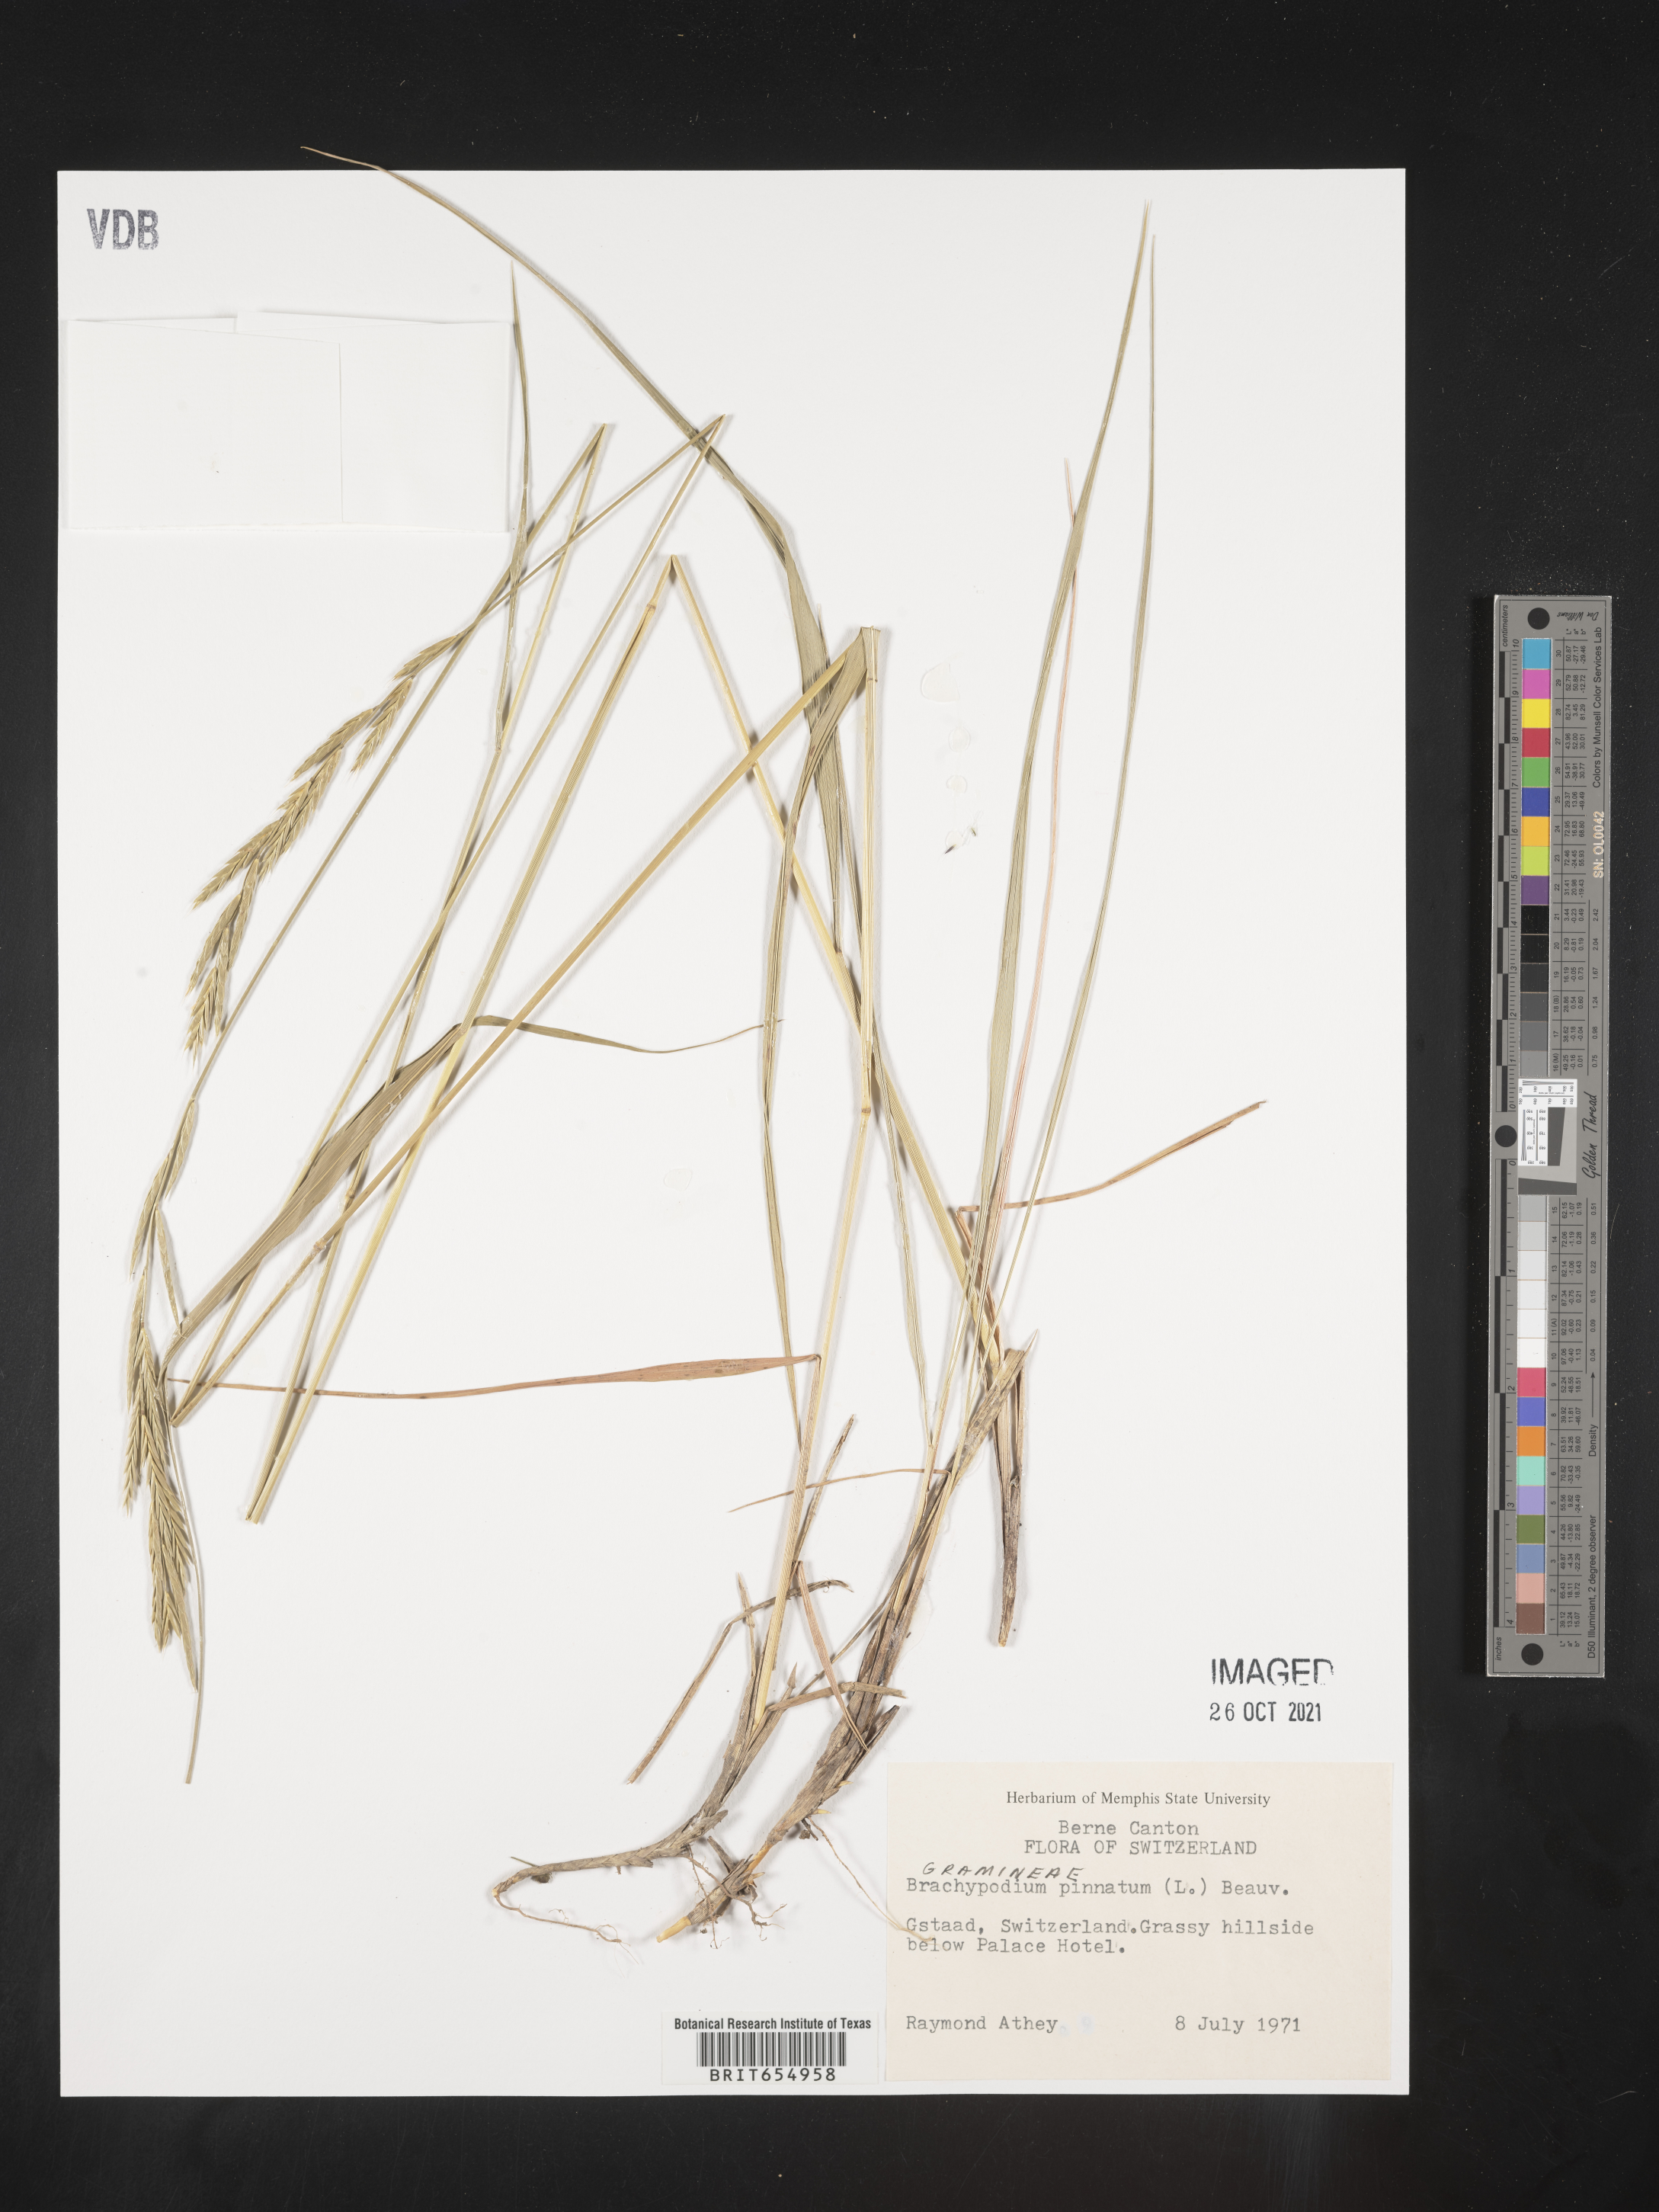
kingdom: Plantae
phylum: Tracheophyta
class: Liliopsida
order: Poales
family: Poaceae
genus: Brachypodium
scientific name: Brachypodium
